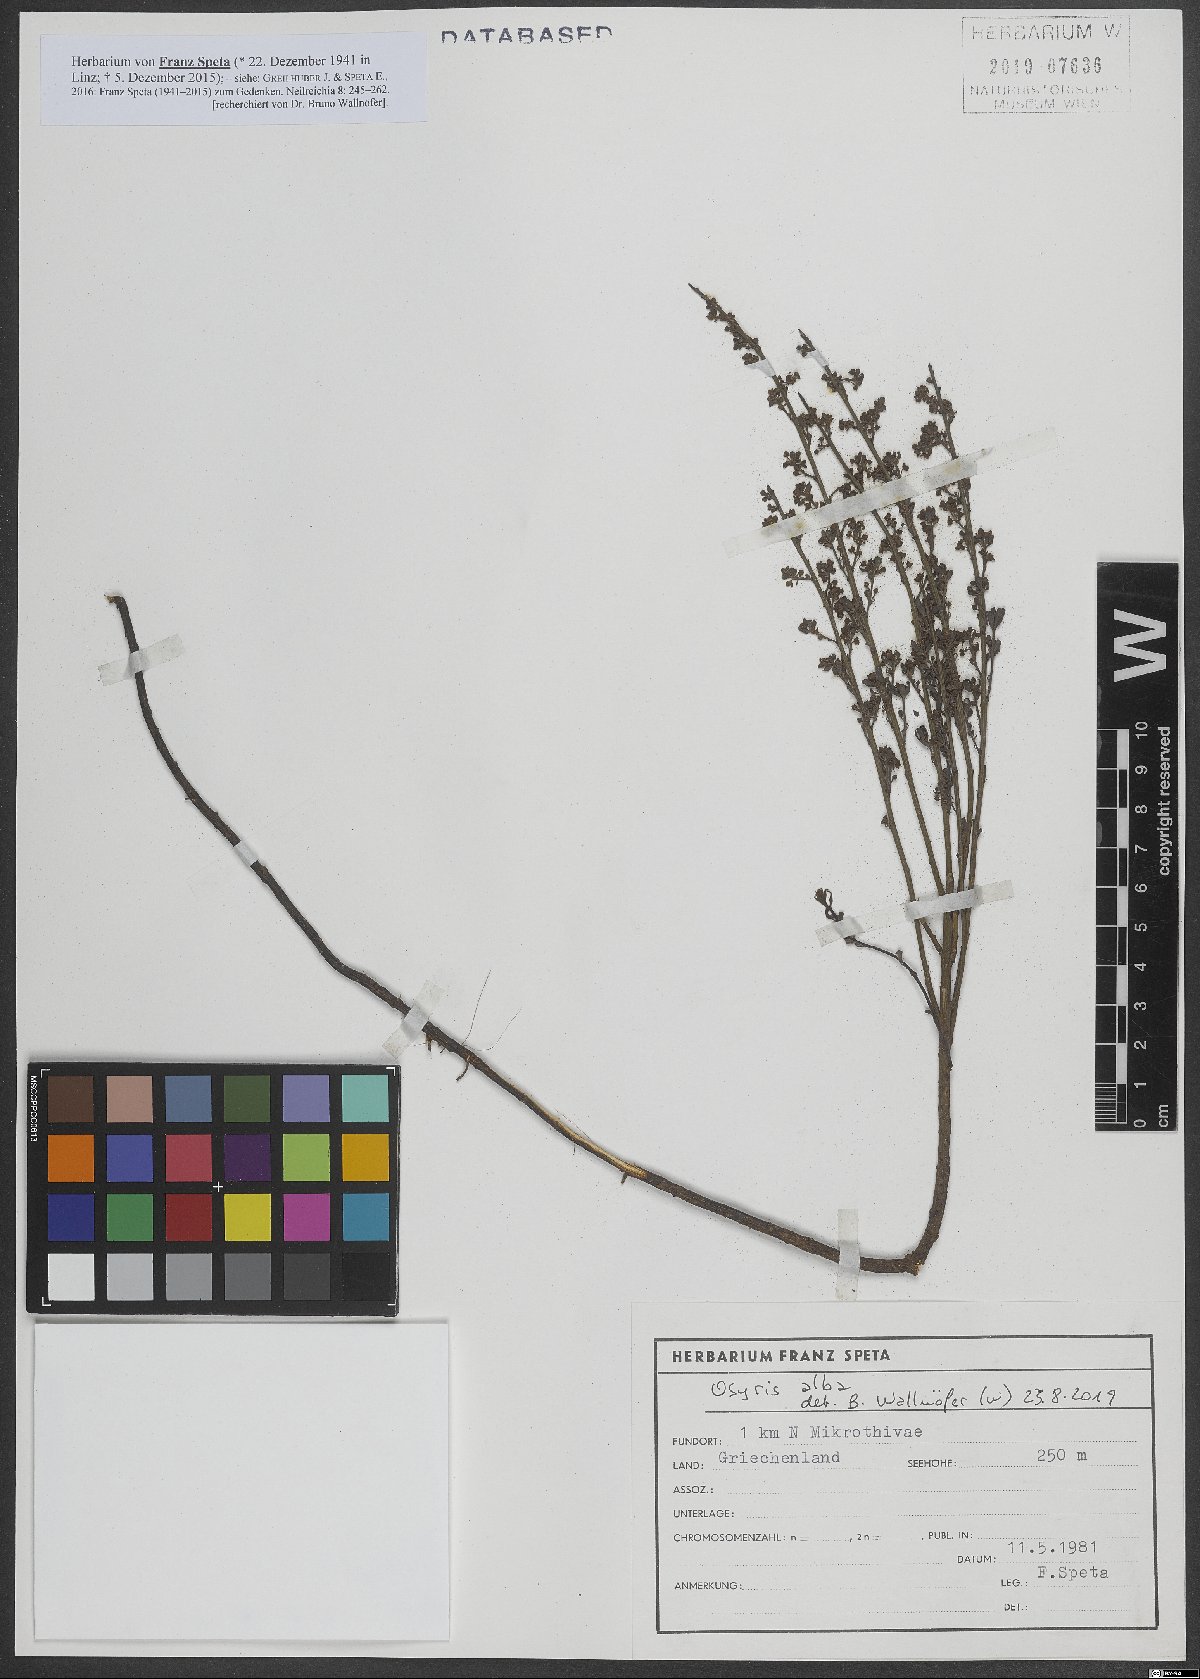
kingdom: Plantae
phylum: Tracheophyta
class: Magnoliopsida
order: Santalales
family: Santalaceae
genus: Osyris
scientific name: Osyris alba
